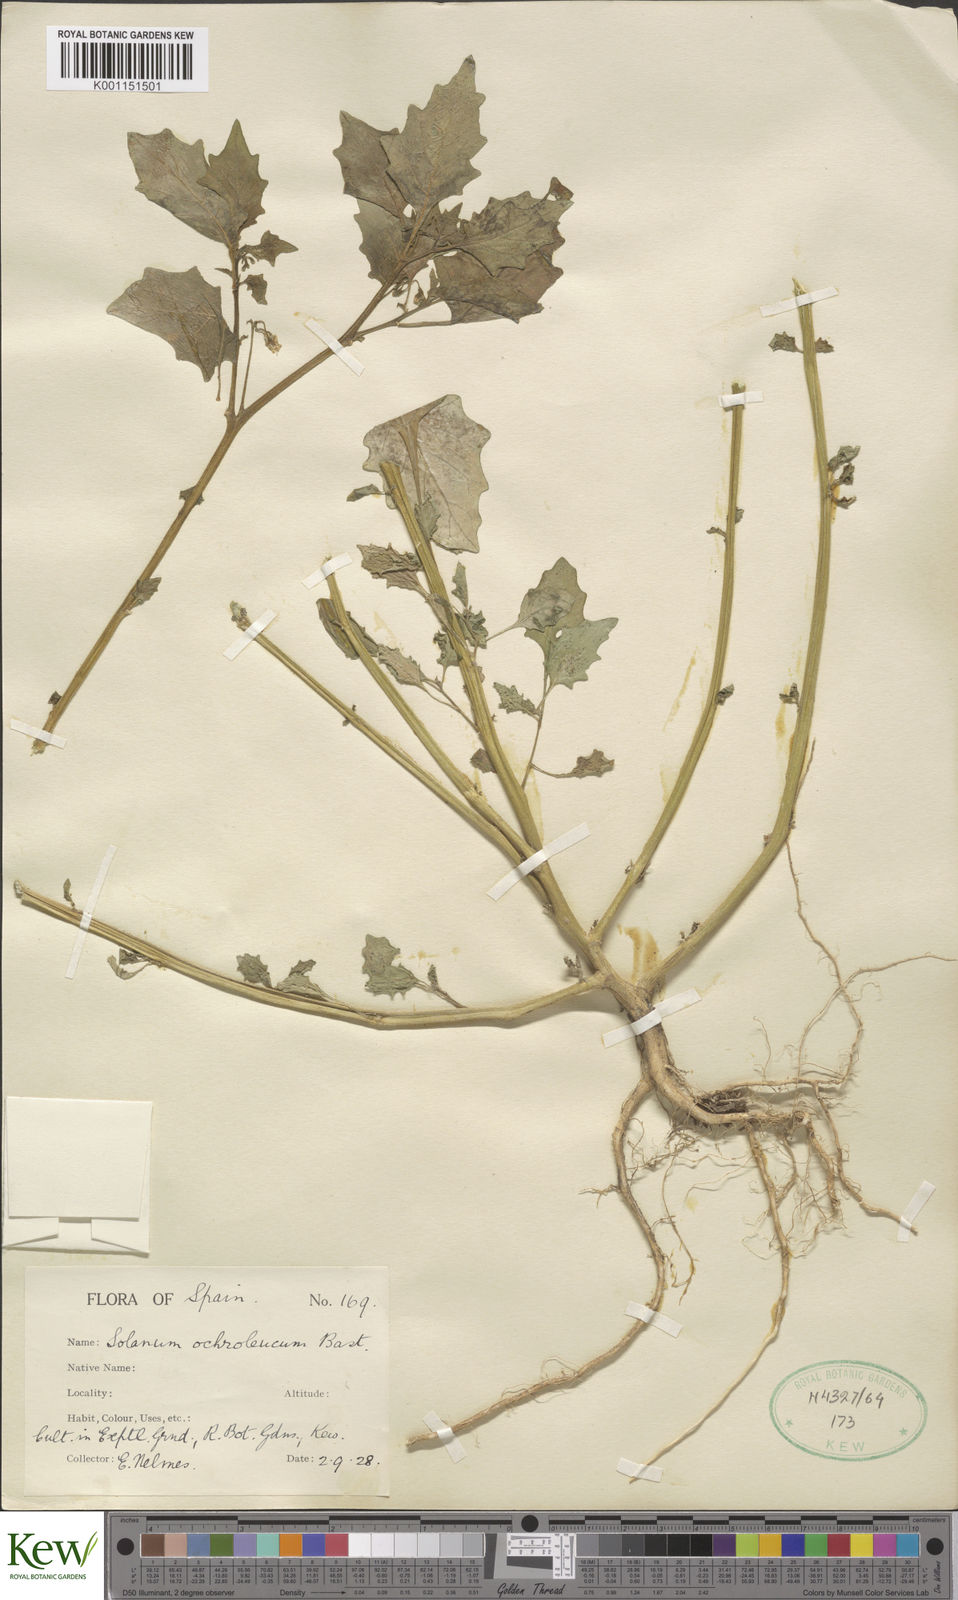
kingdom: Plantae
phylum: Tracheophyta
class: Magnoliopsida
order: Solanales
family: Solanaceae
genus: Solanum
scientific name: Solanum villosum
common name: Red nightshade
